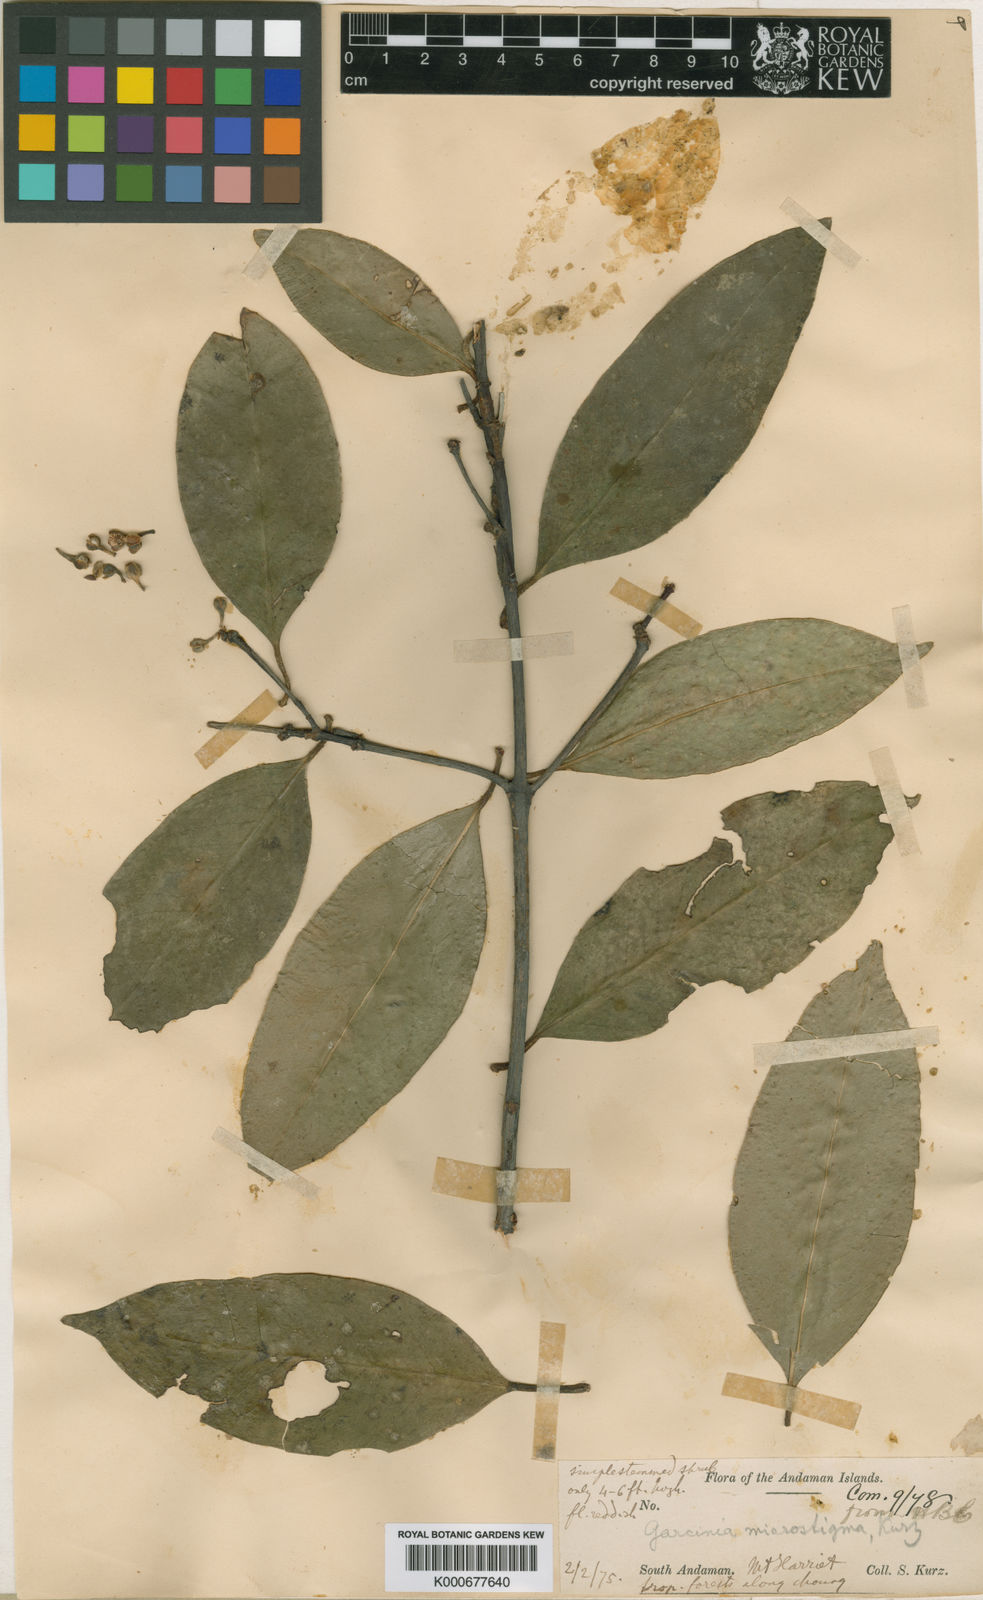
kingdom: Plantae
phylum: Tracheophyta
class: Magnoliopsida
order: Malpighiales
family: Clusiaceae
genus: Garcinia
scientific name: Garcinia microstigma
